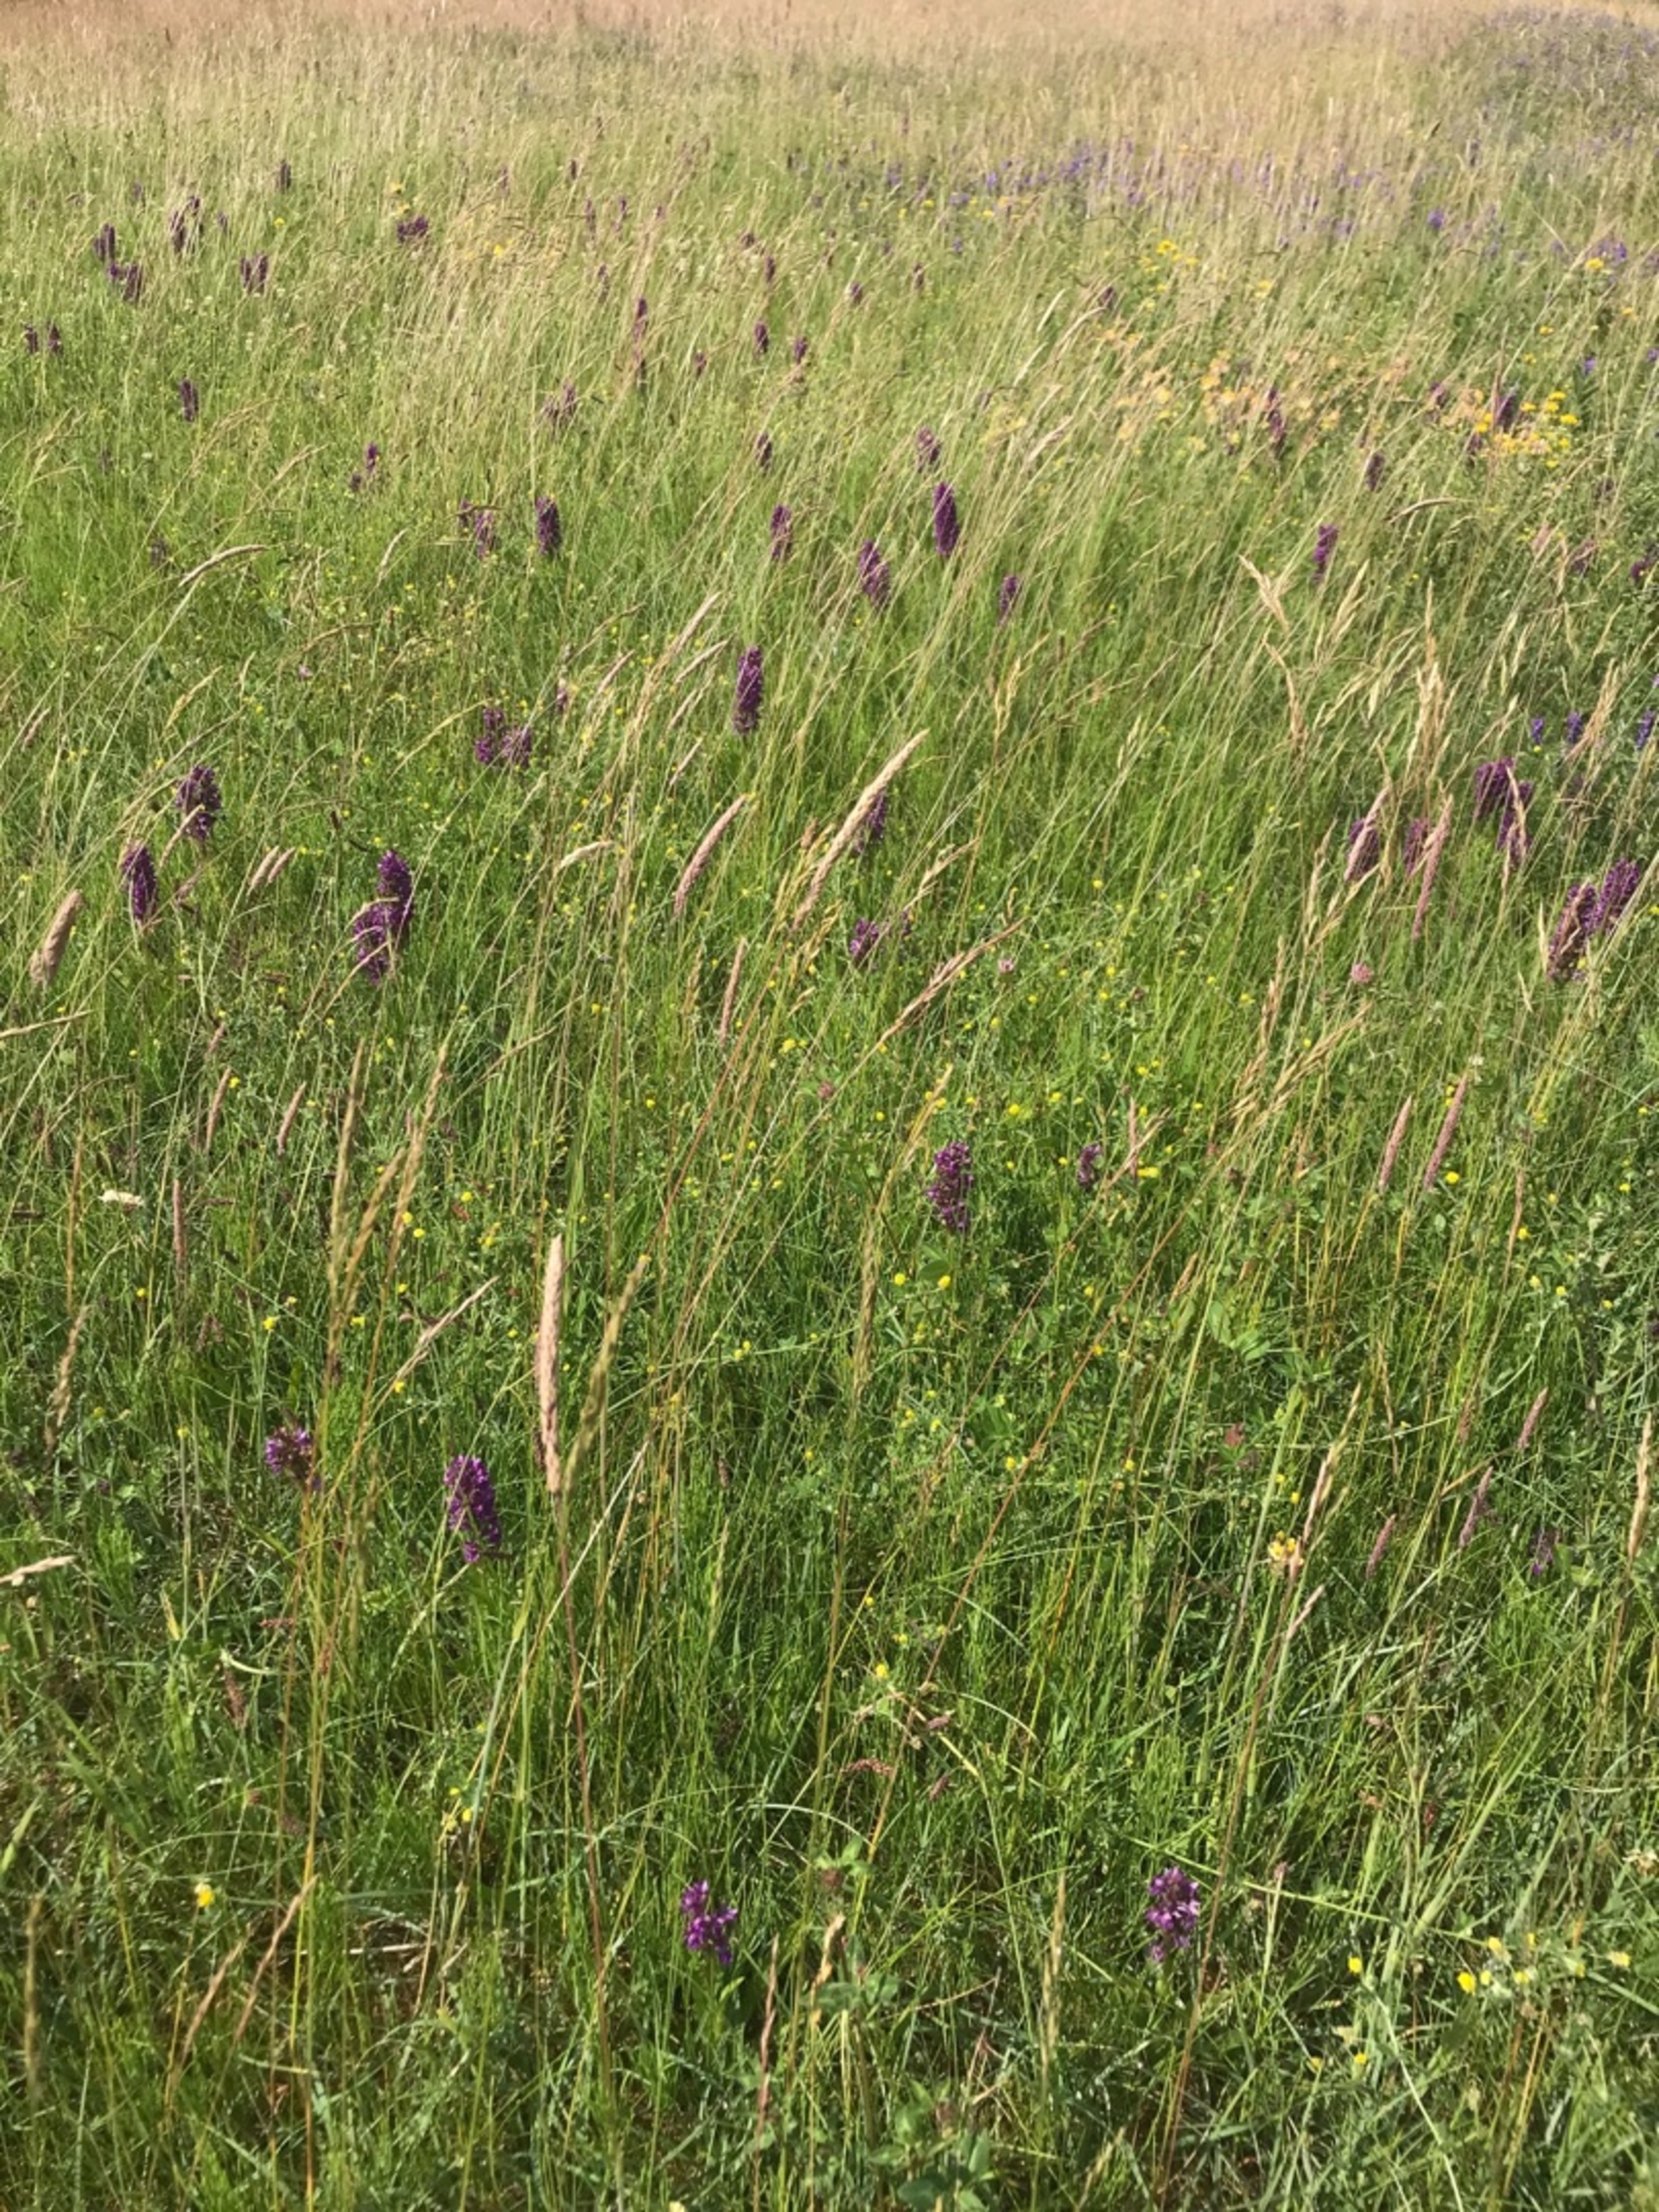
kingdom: Plantae
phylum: Tracheophyta
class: Liliopsida
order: Asparagales
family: Orchidaceae
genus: Dactylorhiza
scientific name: Dactylorhiza majalis
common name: Purpur-gøgeurt
